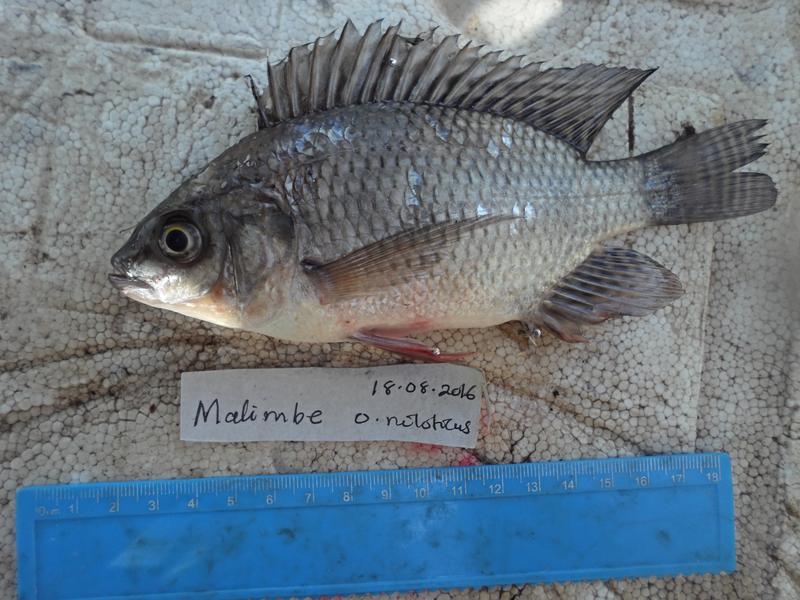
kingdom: Animalia
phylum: Chordata
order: Perciformes
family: Cichlidae
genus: Oreochromis
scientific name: Oreochromis niloticus
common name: Nile tilapia
